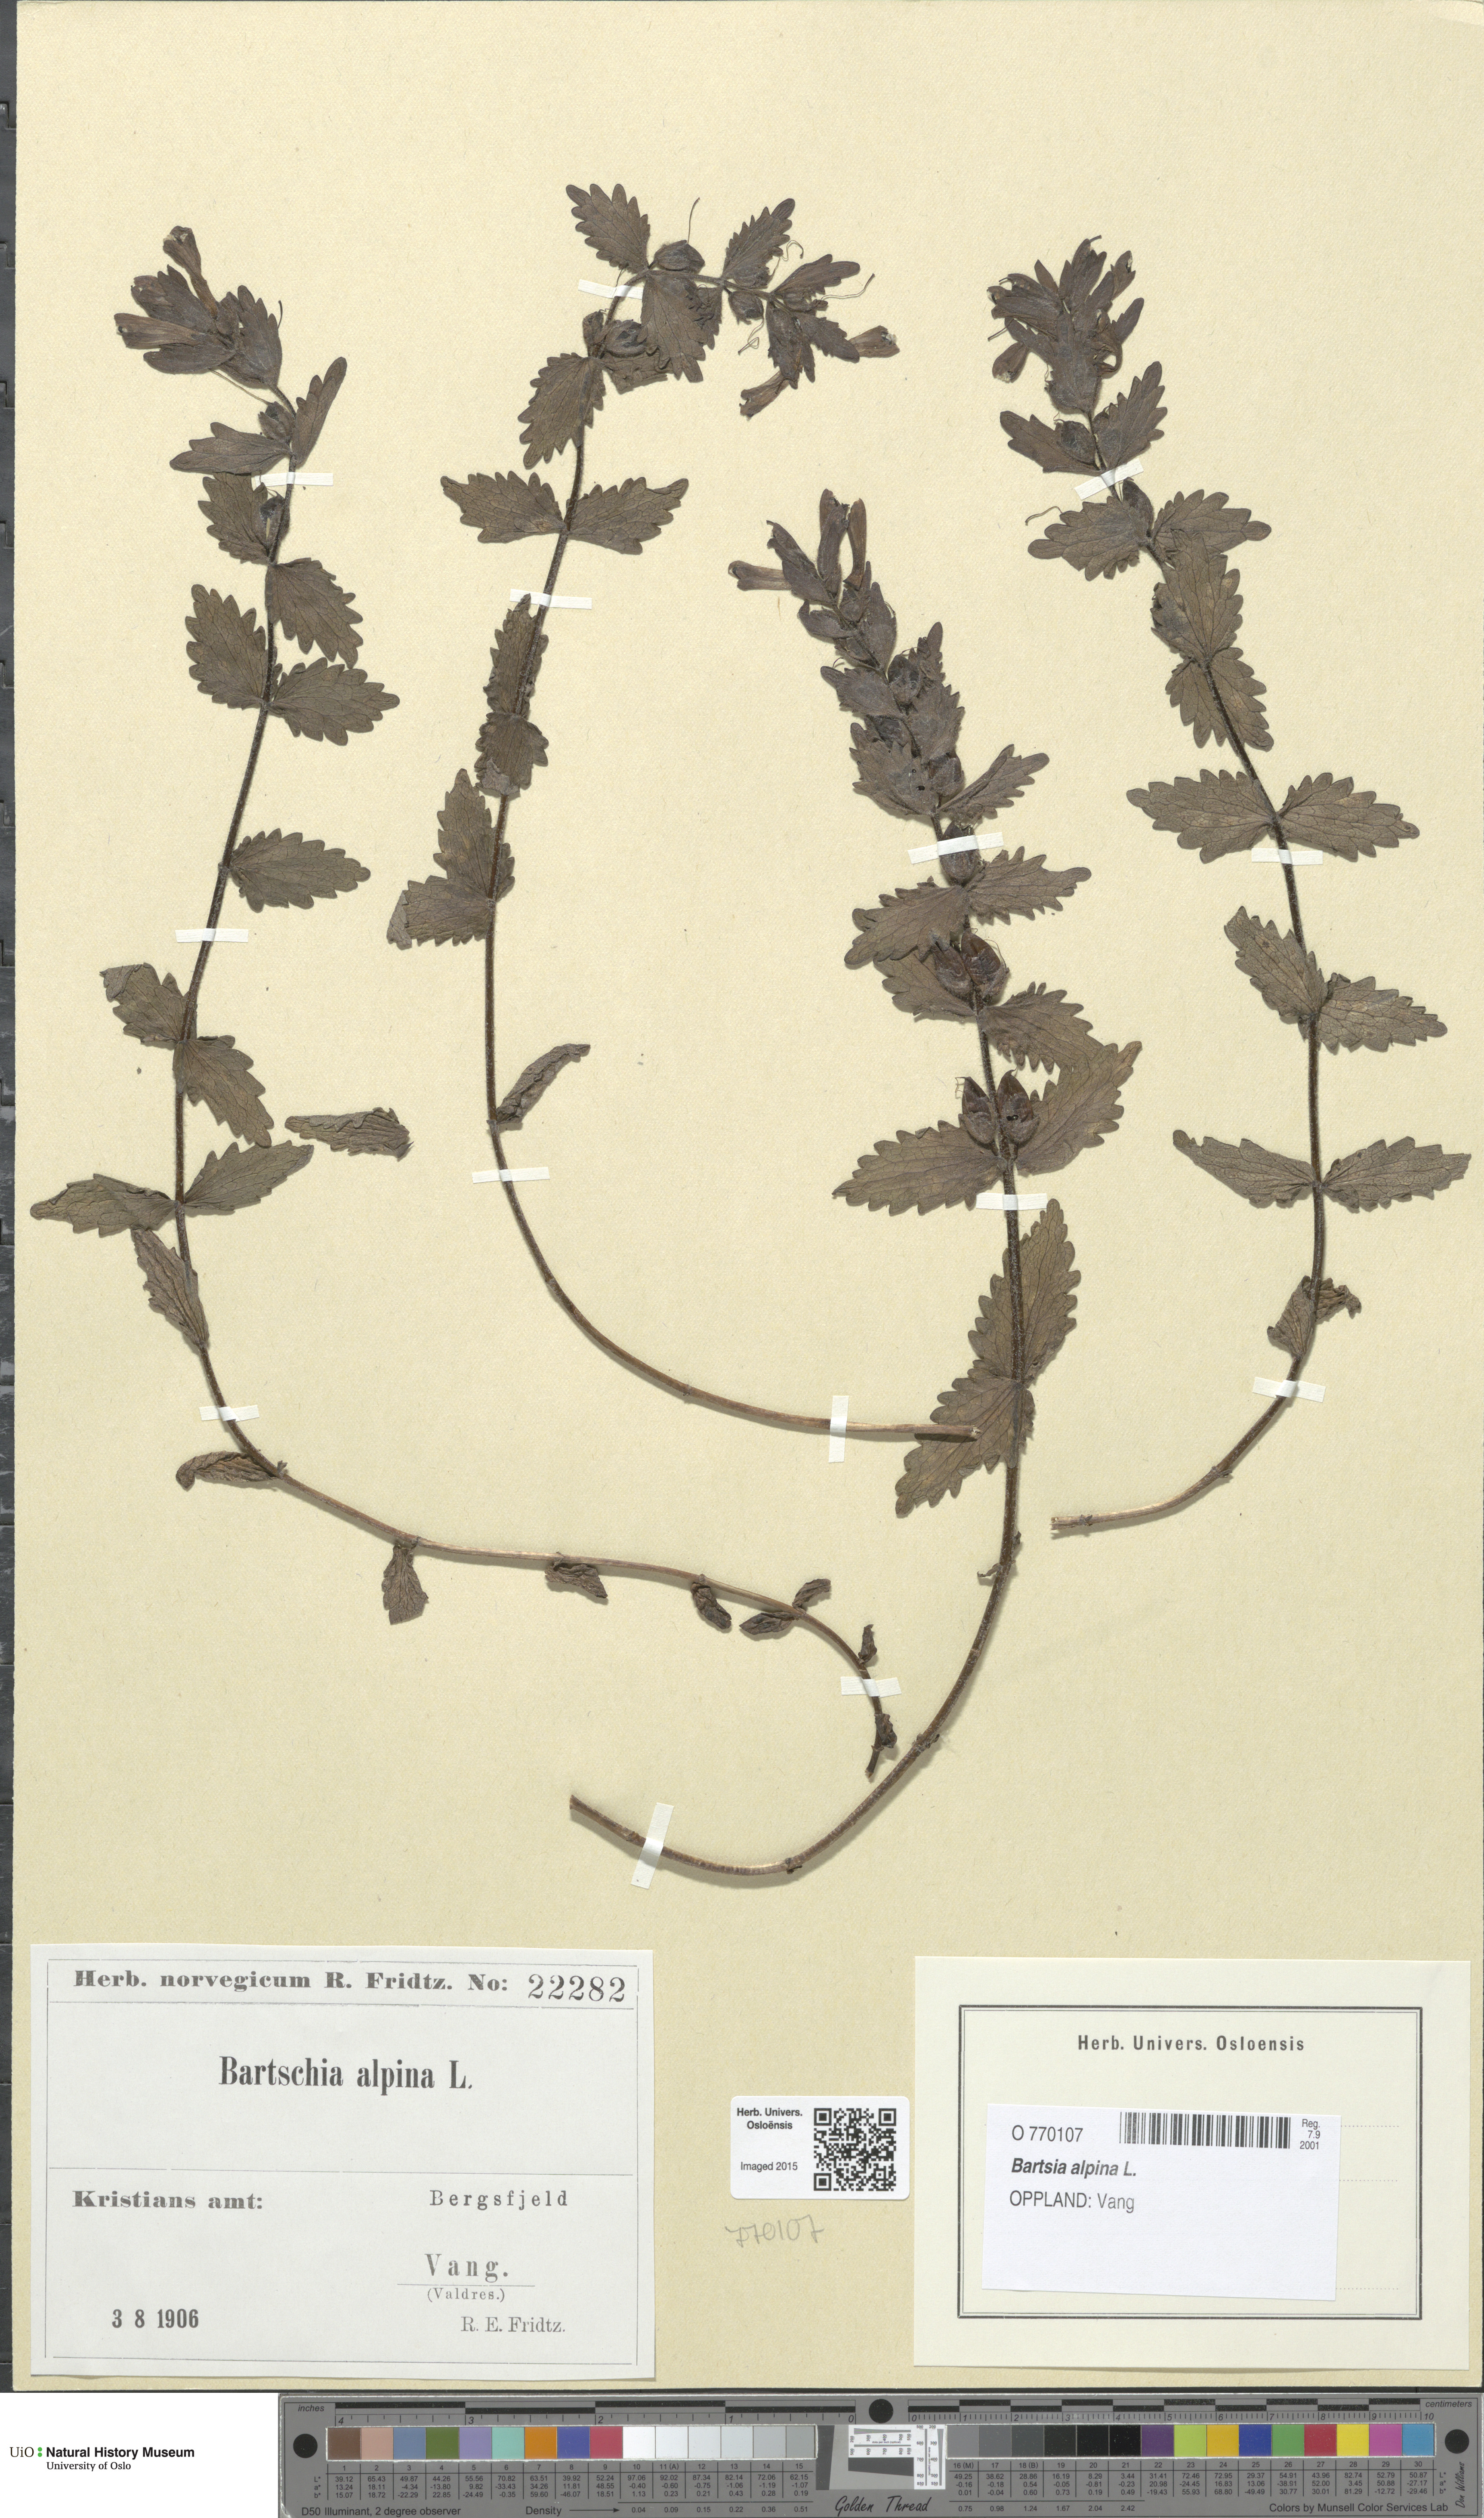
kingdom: Plantae
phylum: Tracheophyta
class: Magnoliopsida
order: Lamiales
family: Orobanchaceae
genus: Bartsia
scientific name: Bartsia alpina
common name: Alpine bartsia
